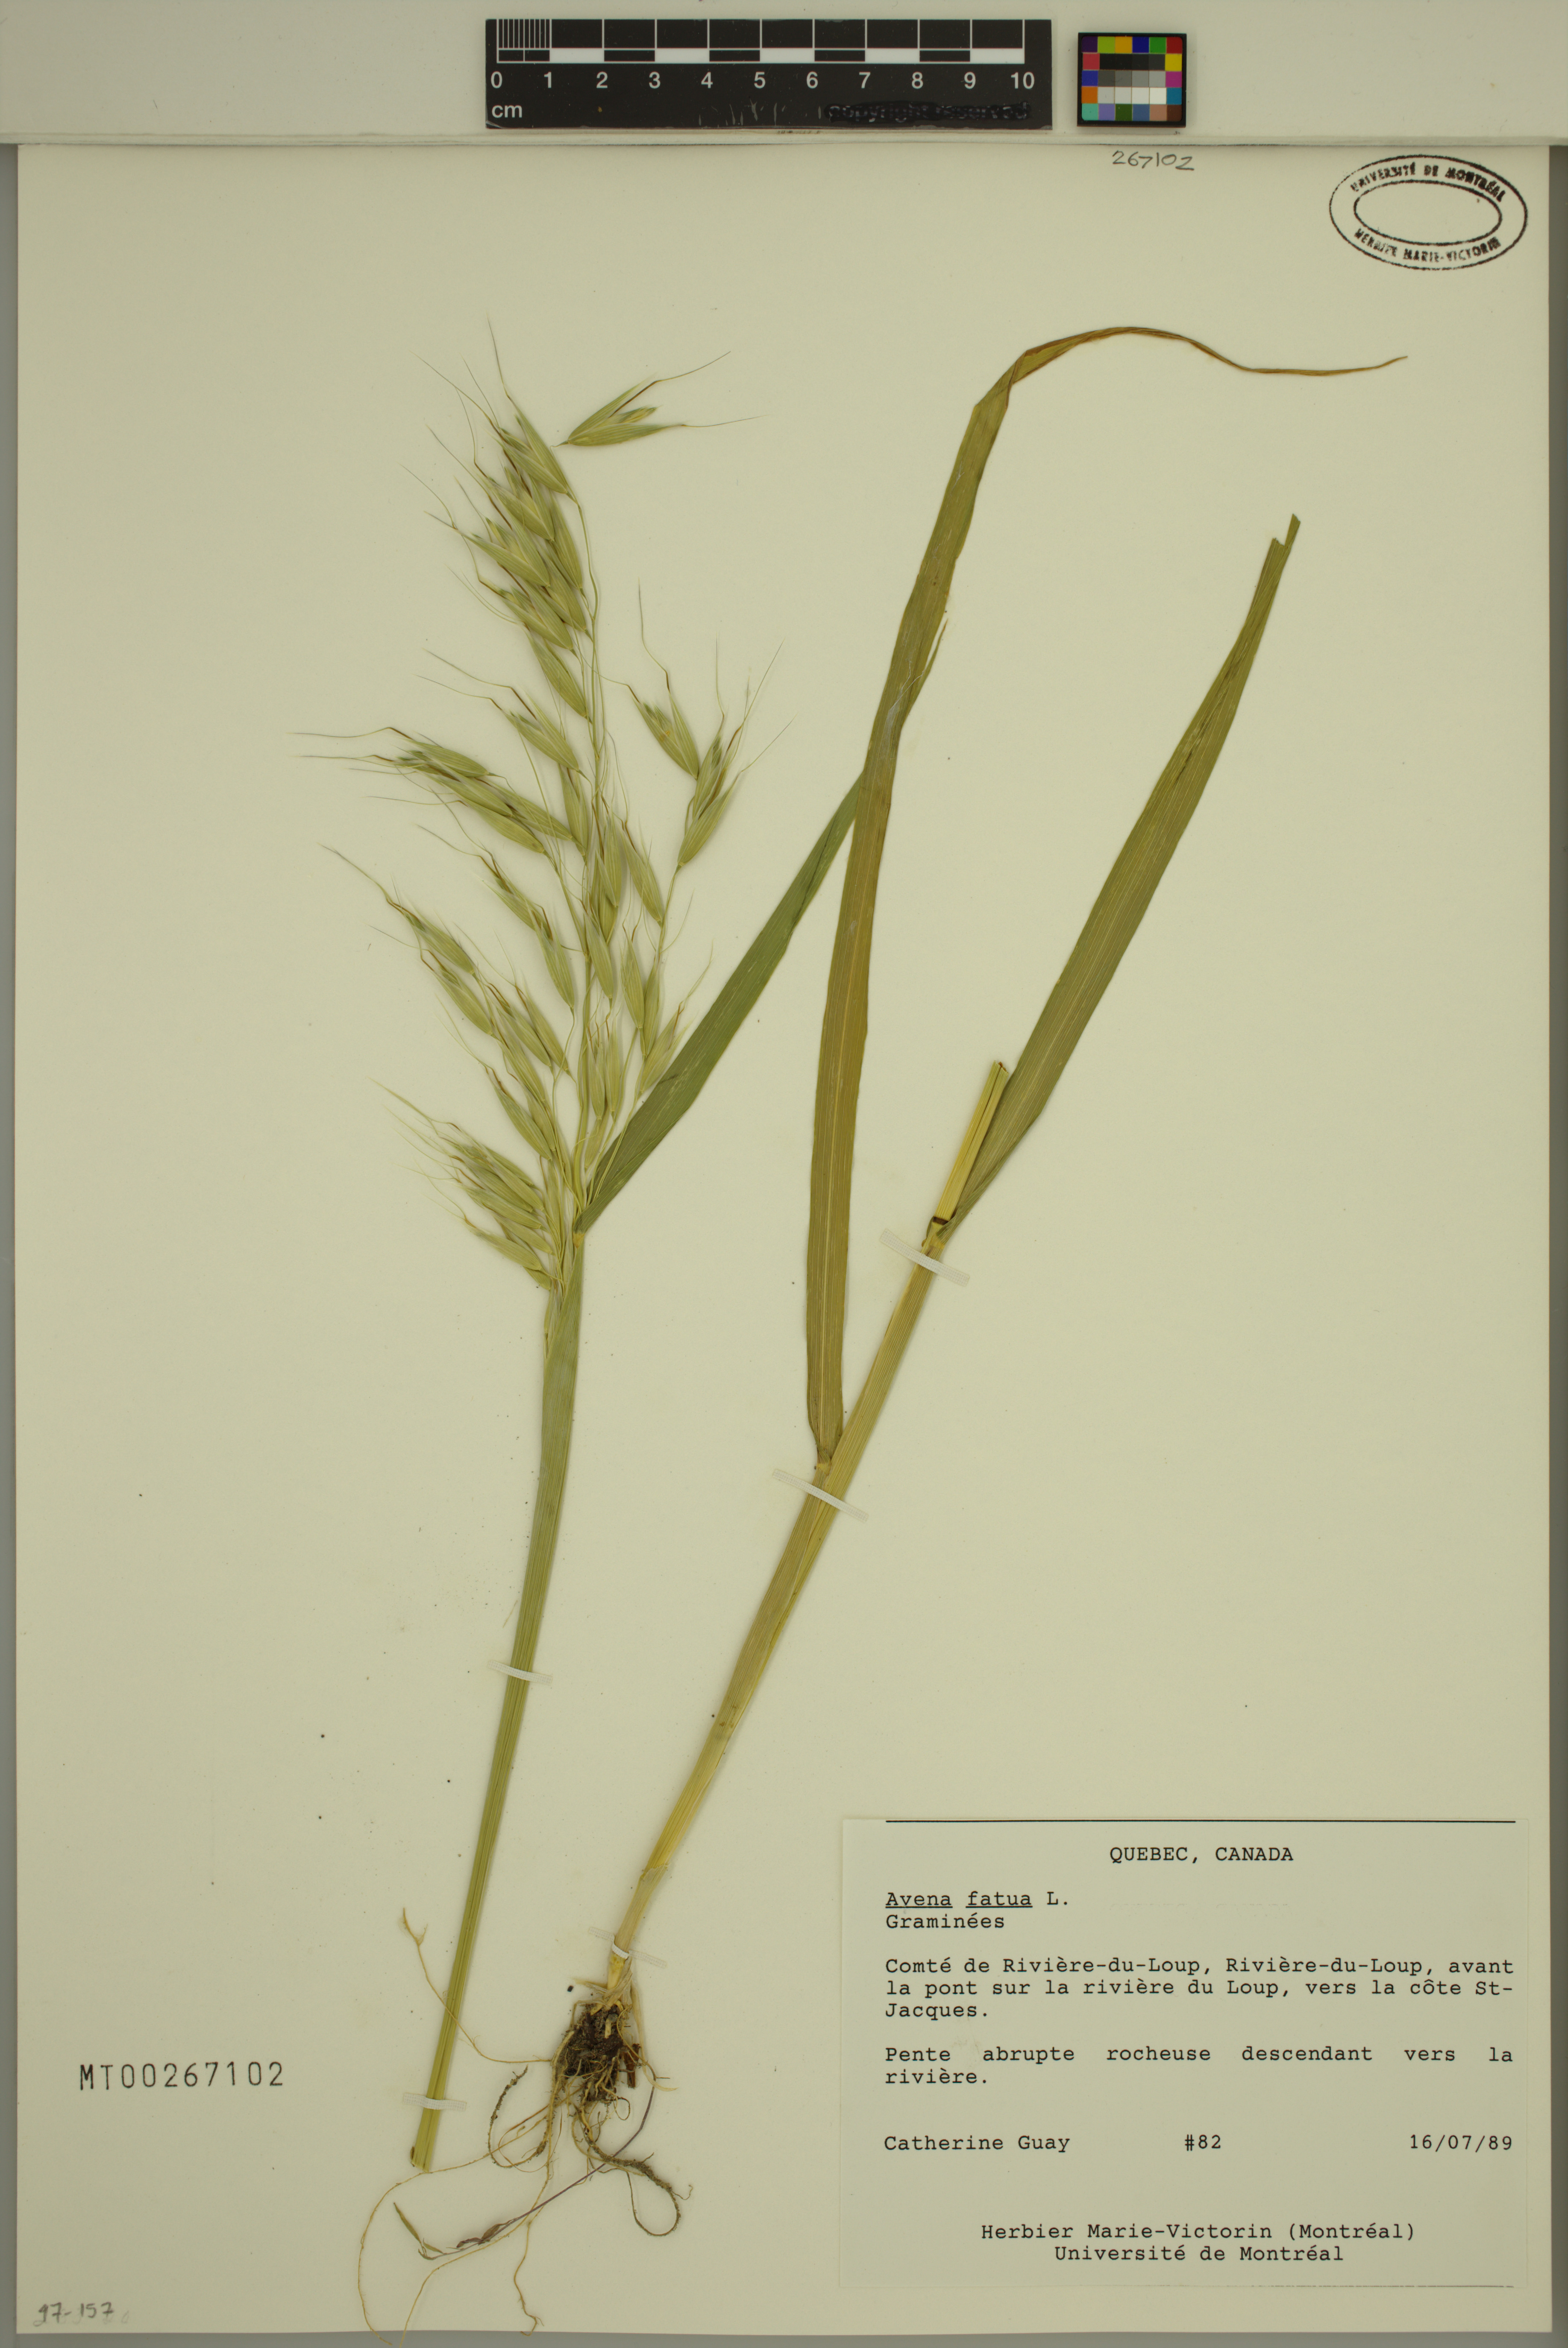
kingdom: Plantae
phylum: Tracheophyta
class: Liliopsida
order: Poales
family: Poaceae
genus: Avena
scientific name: Avena fatua
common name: Wild oat
